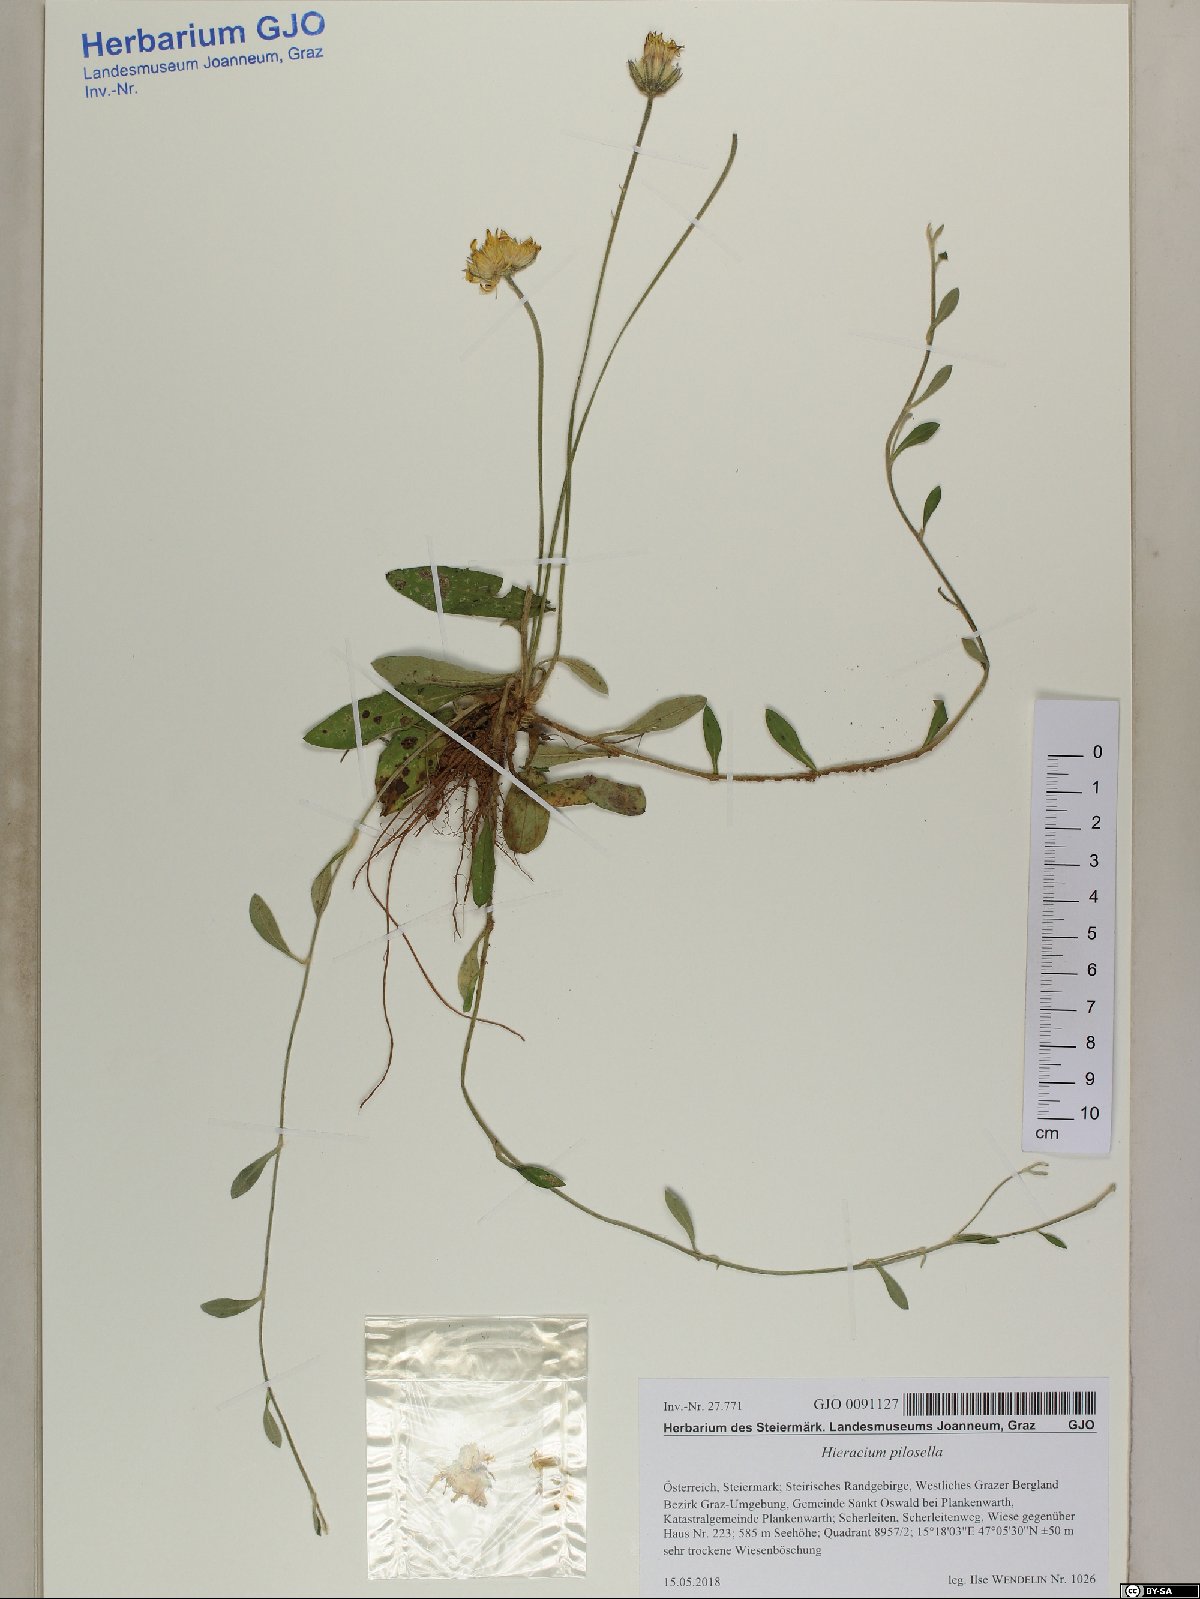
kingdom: Plantae
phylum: Tracheophyta
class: Magnoliopsida
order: Asterales
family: Asteraceae
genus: Pilosella
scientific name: Pilosella officinarum
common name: Mouse-ear hawkweed
